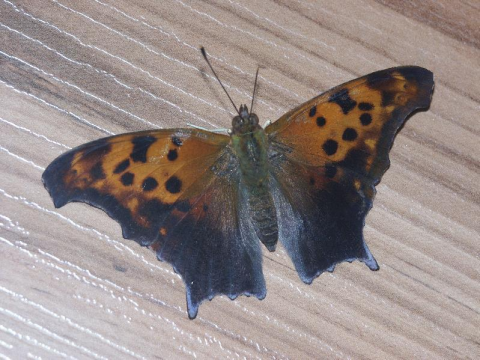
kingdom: Animalia
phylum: Arthropoda
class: Insecta
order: Lepidoptera
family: Nymphalidae
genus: Polygonia
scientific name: Polygonia interrogationis
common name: Question Mark
